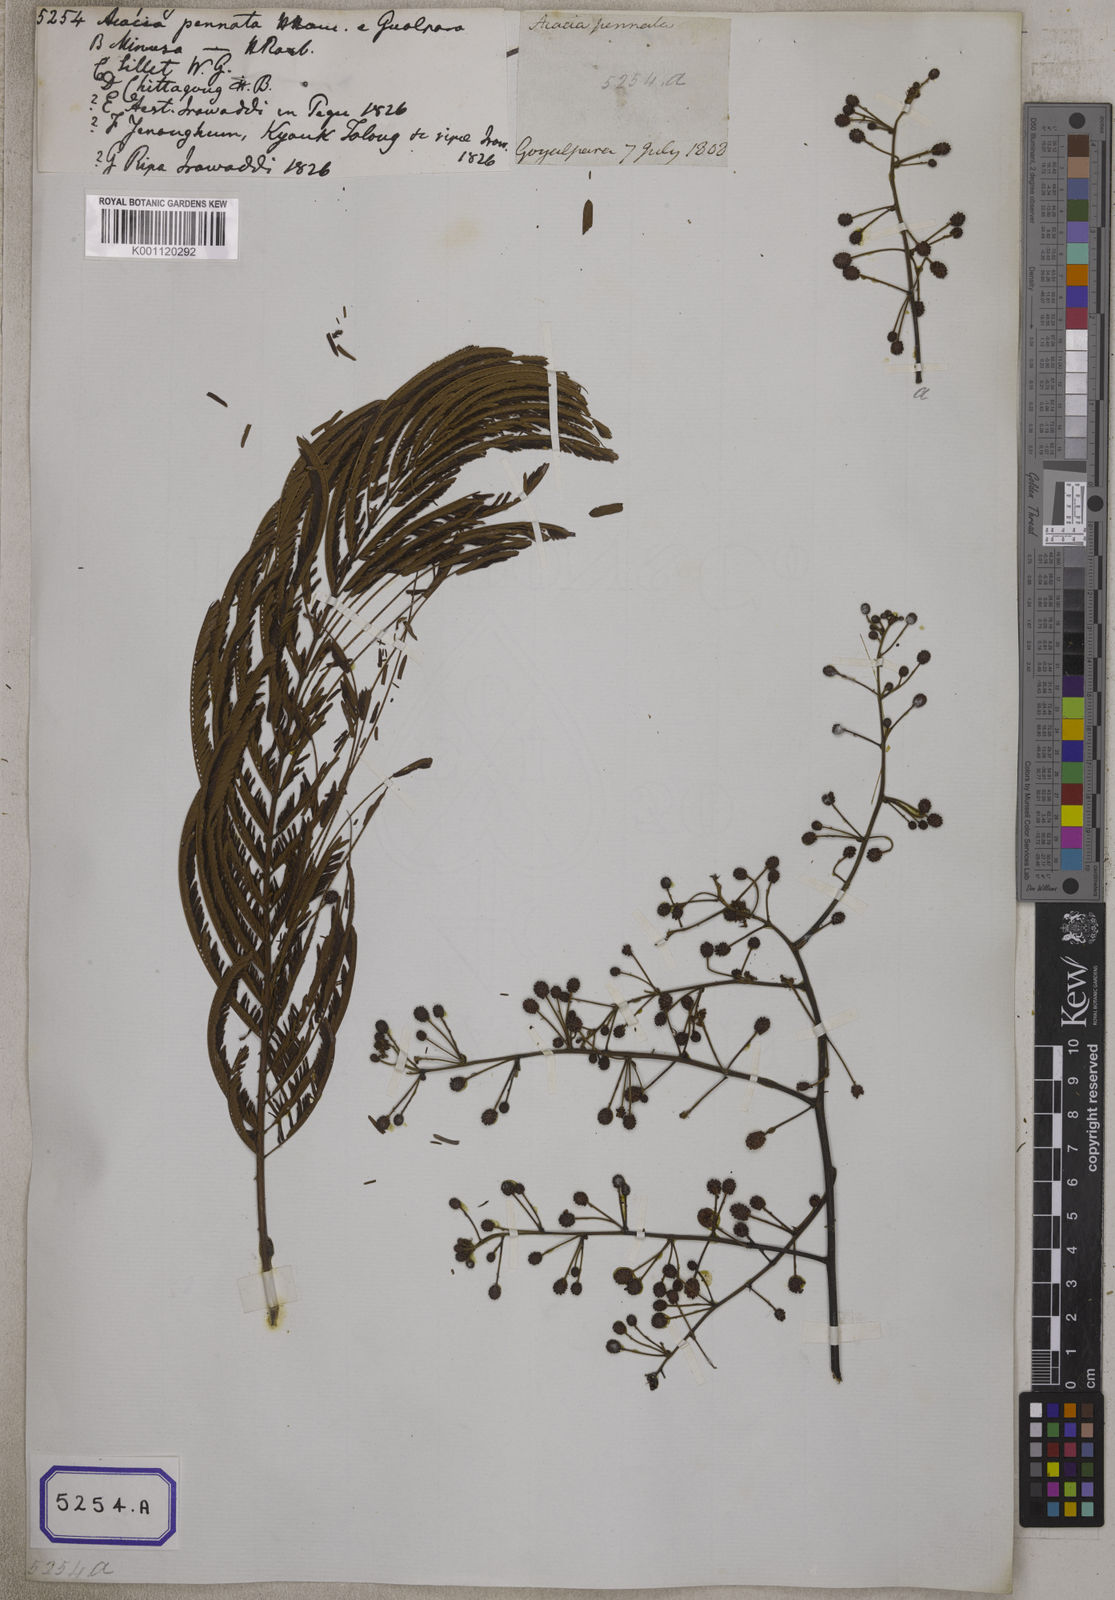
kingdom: Plantae
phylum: Tracheophyta
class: Magnoliopsida
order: Fabales
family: Fabaceae
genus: Senegalia
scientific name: Senegalia pennata
